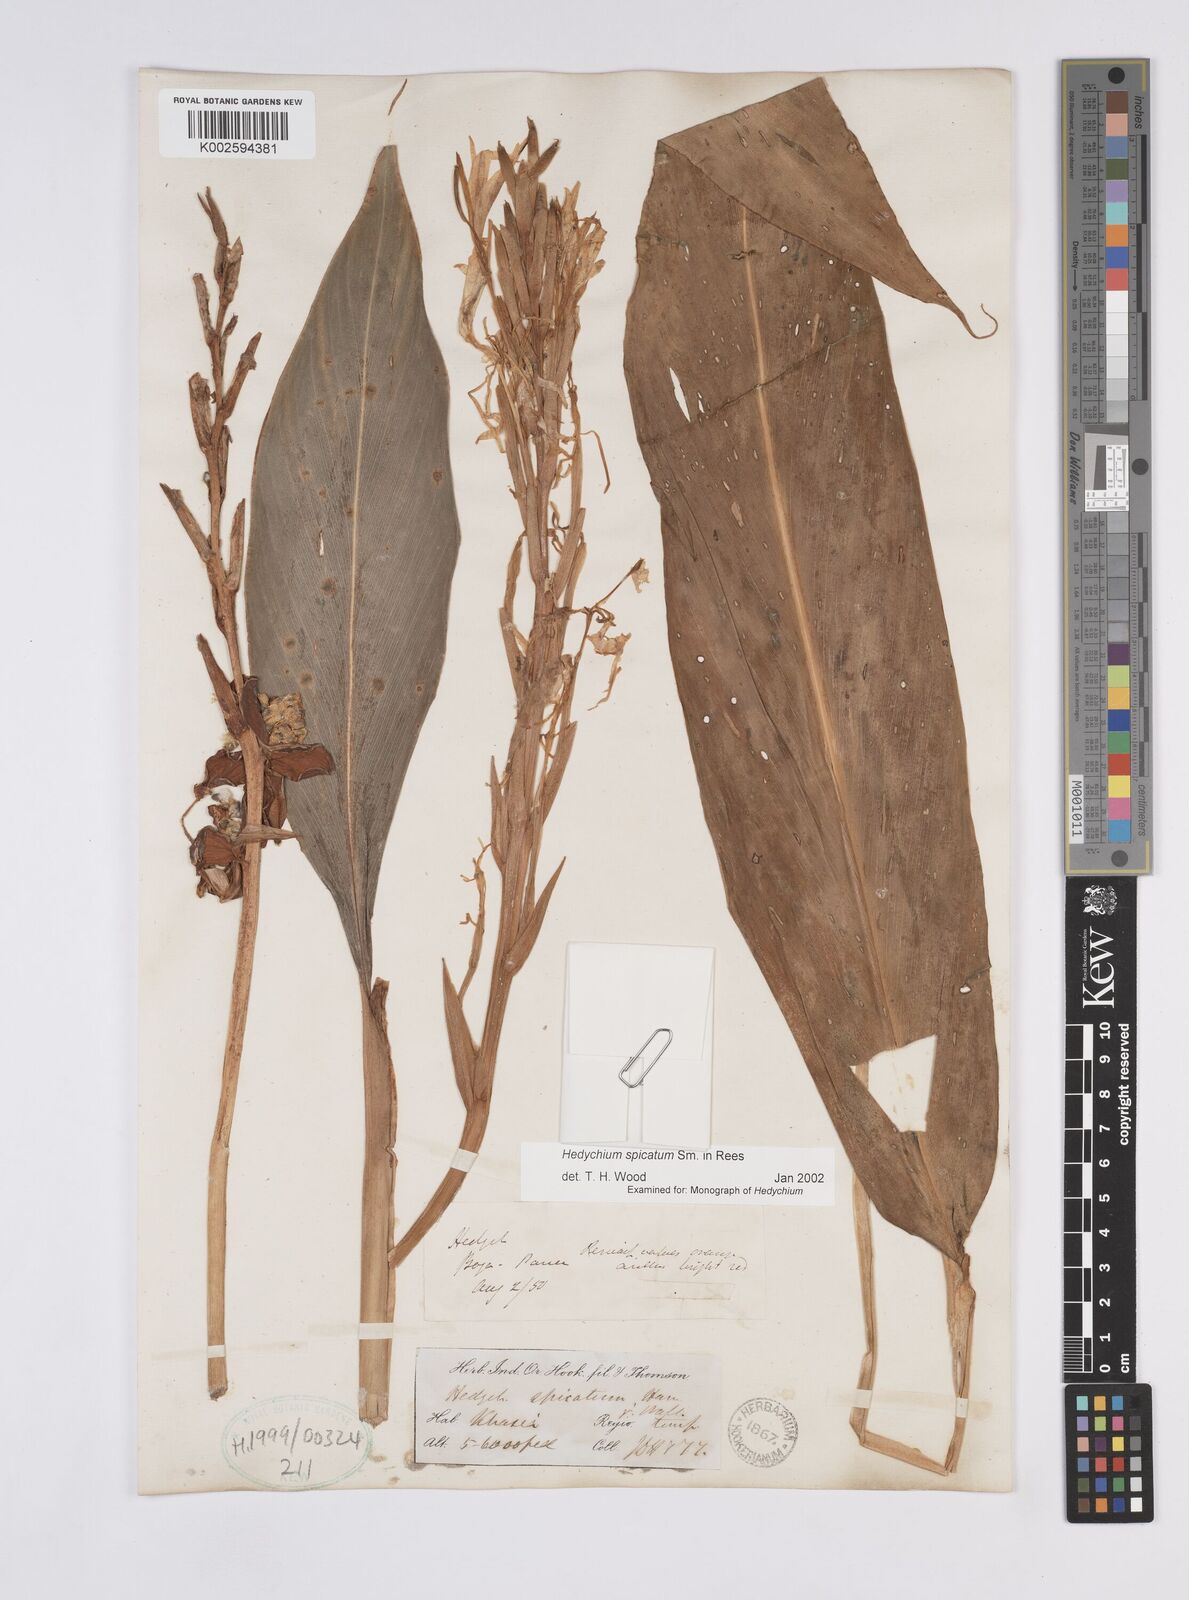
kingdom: Plantae
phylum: Tracheophyta
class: Liliopsida
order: Zingiberales
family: Zingiberaceae
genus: Hedychium
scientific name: Hedychium spicatum
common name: Spiked ginger-lily
